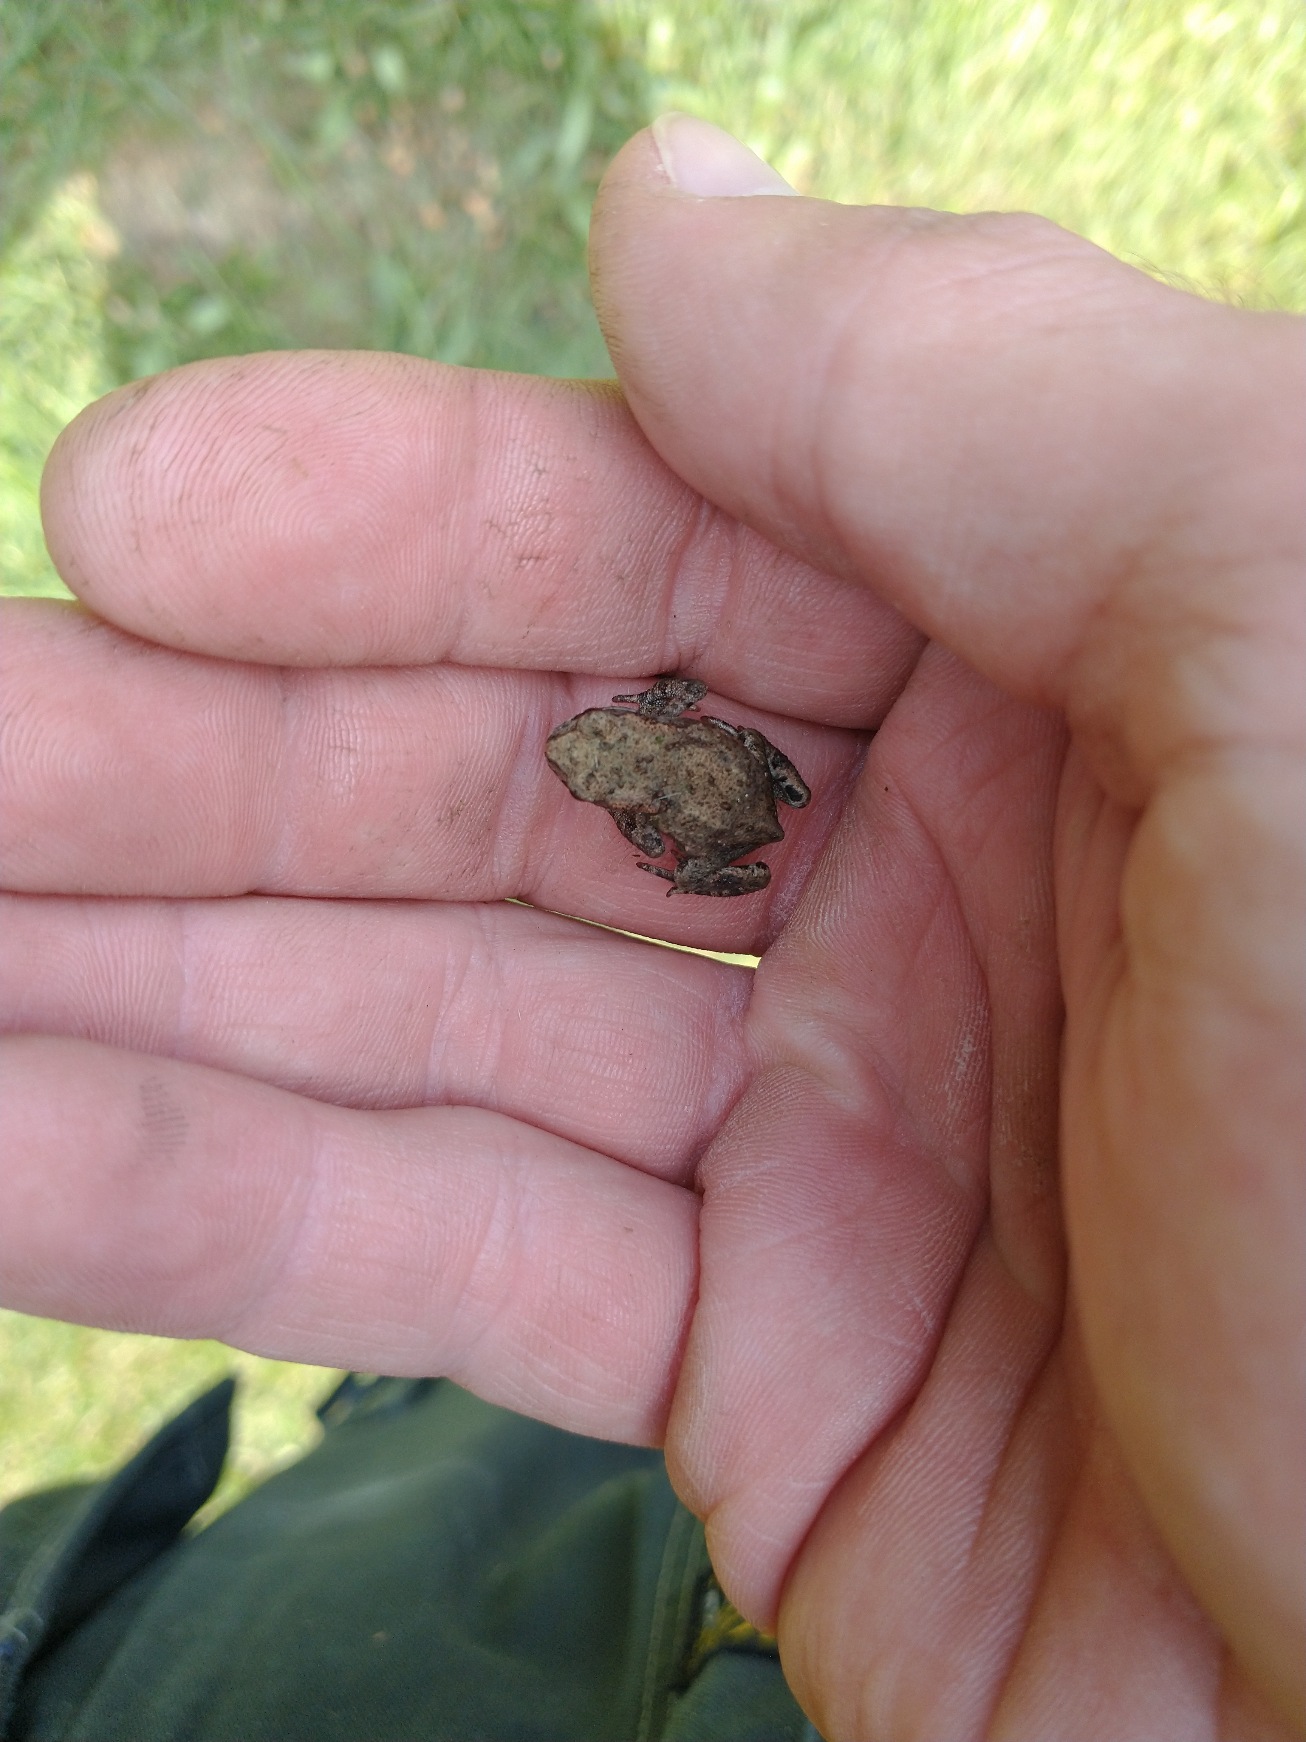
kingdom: Animalia
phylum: Chordata
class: Amphibia
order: Anura
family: Bufonidae
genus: Bufo
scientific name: Bufo bufo
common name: Skrubtudse
